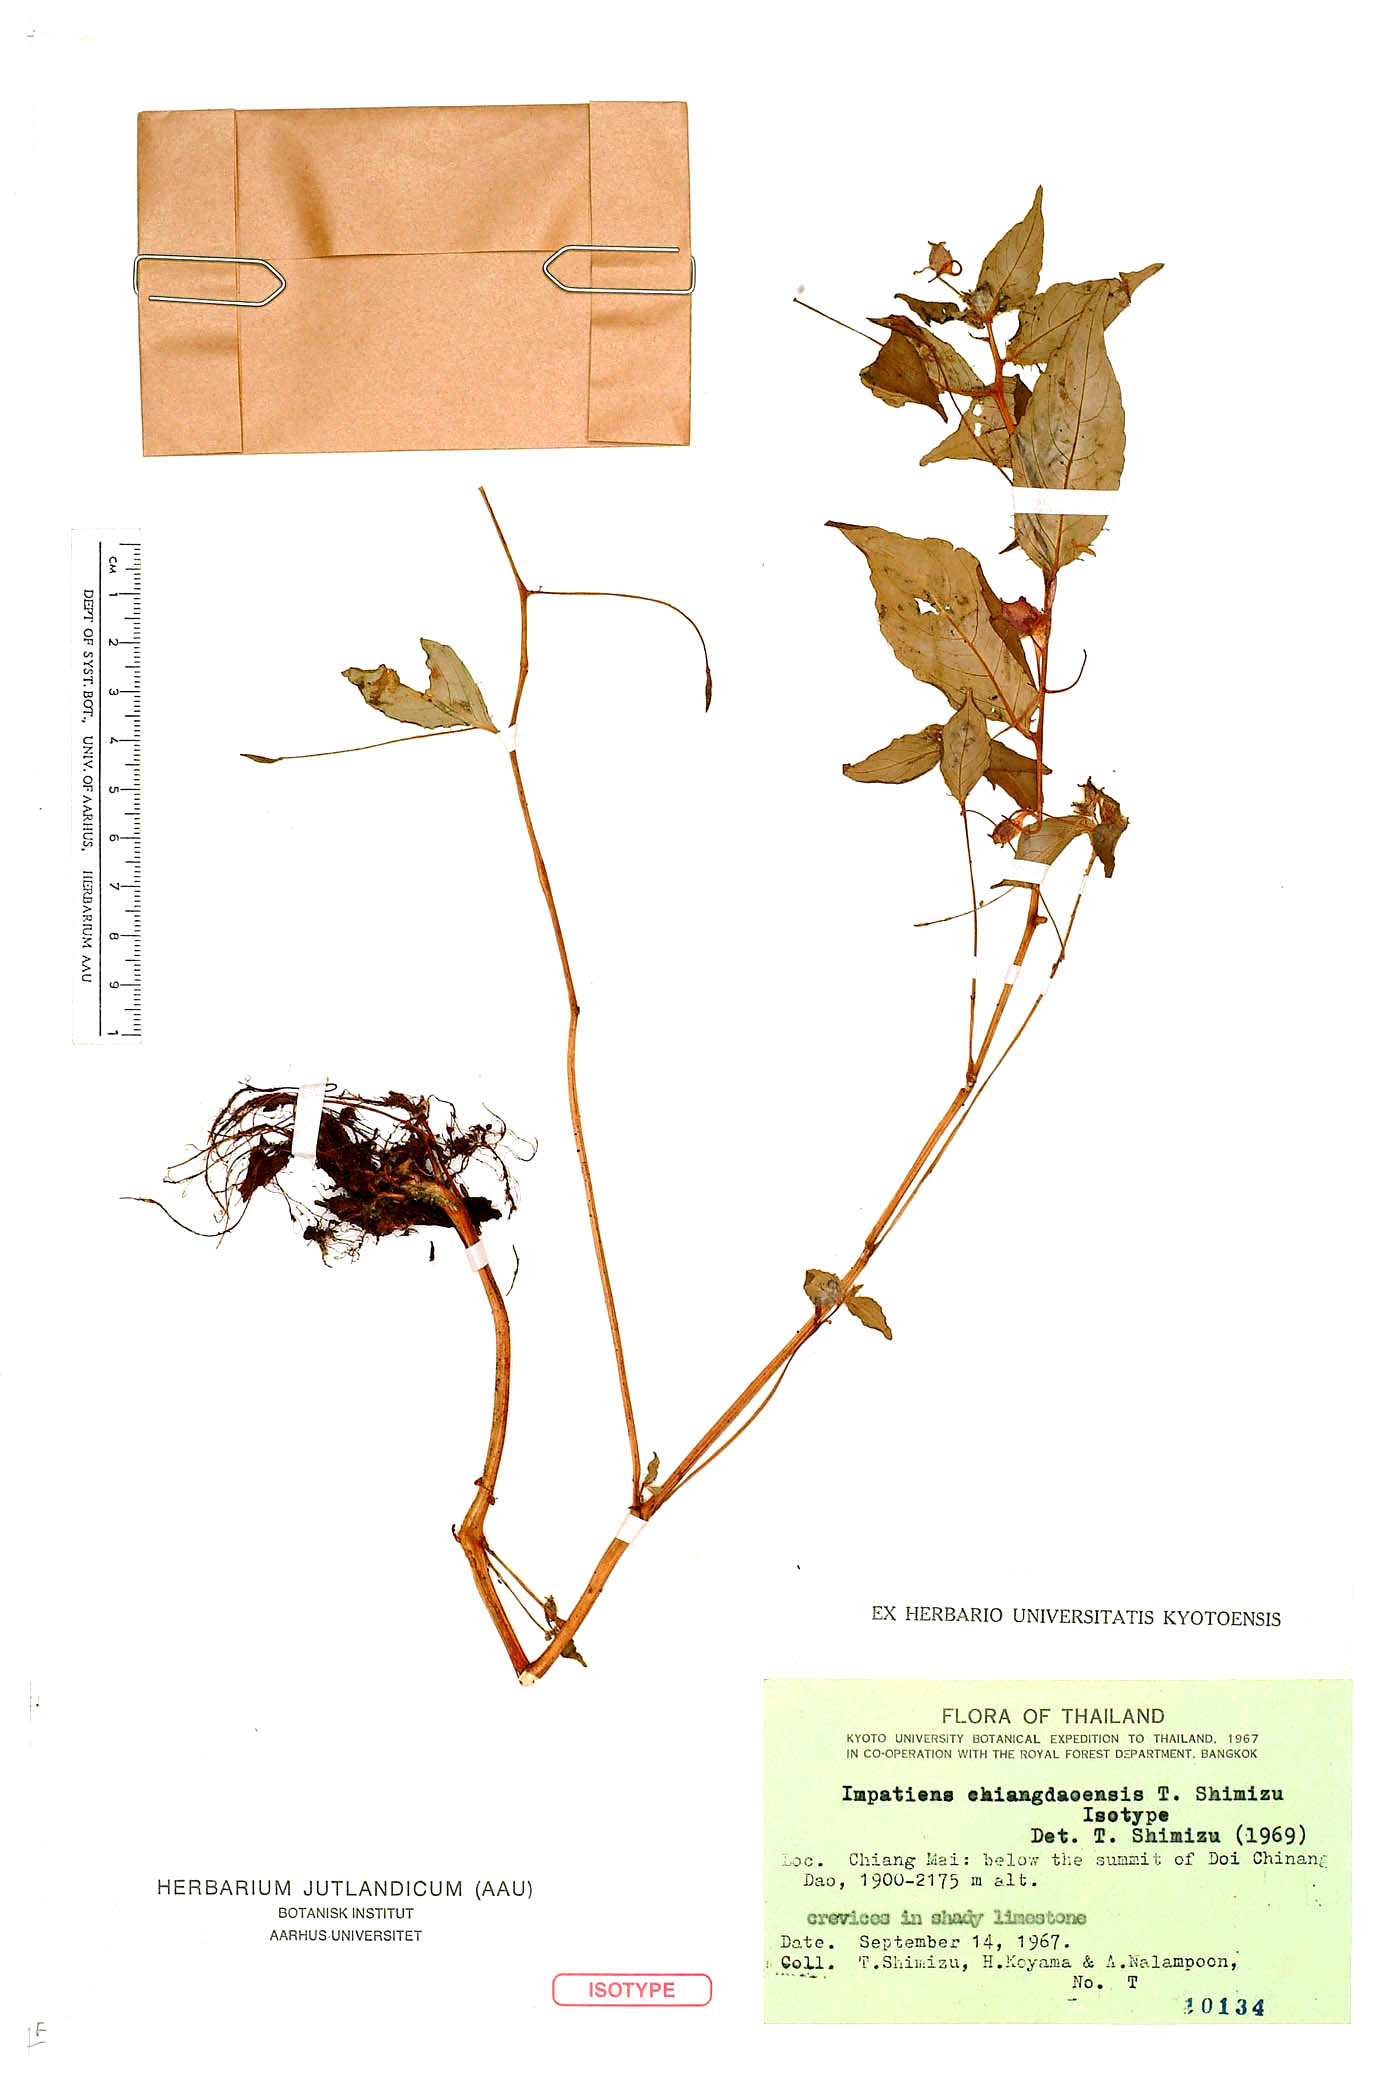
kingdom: Plantae
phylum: Tracheophyta
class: Magnoliopsida
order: Ericales
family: Balsaminaceae
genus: Impatiens
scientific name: Impatiens chiangdaoensis
